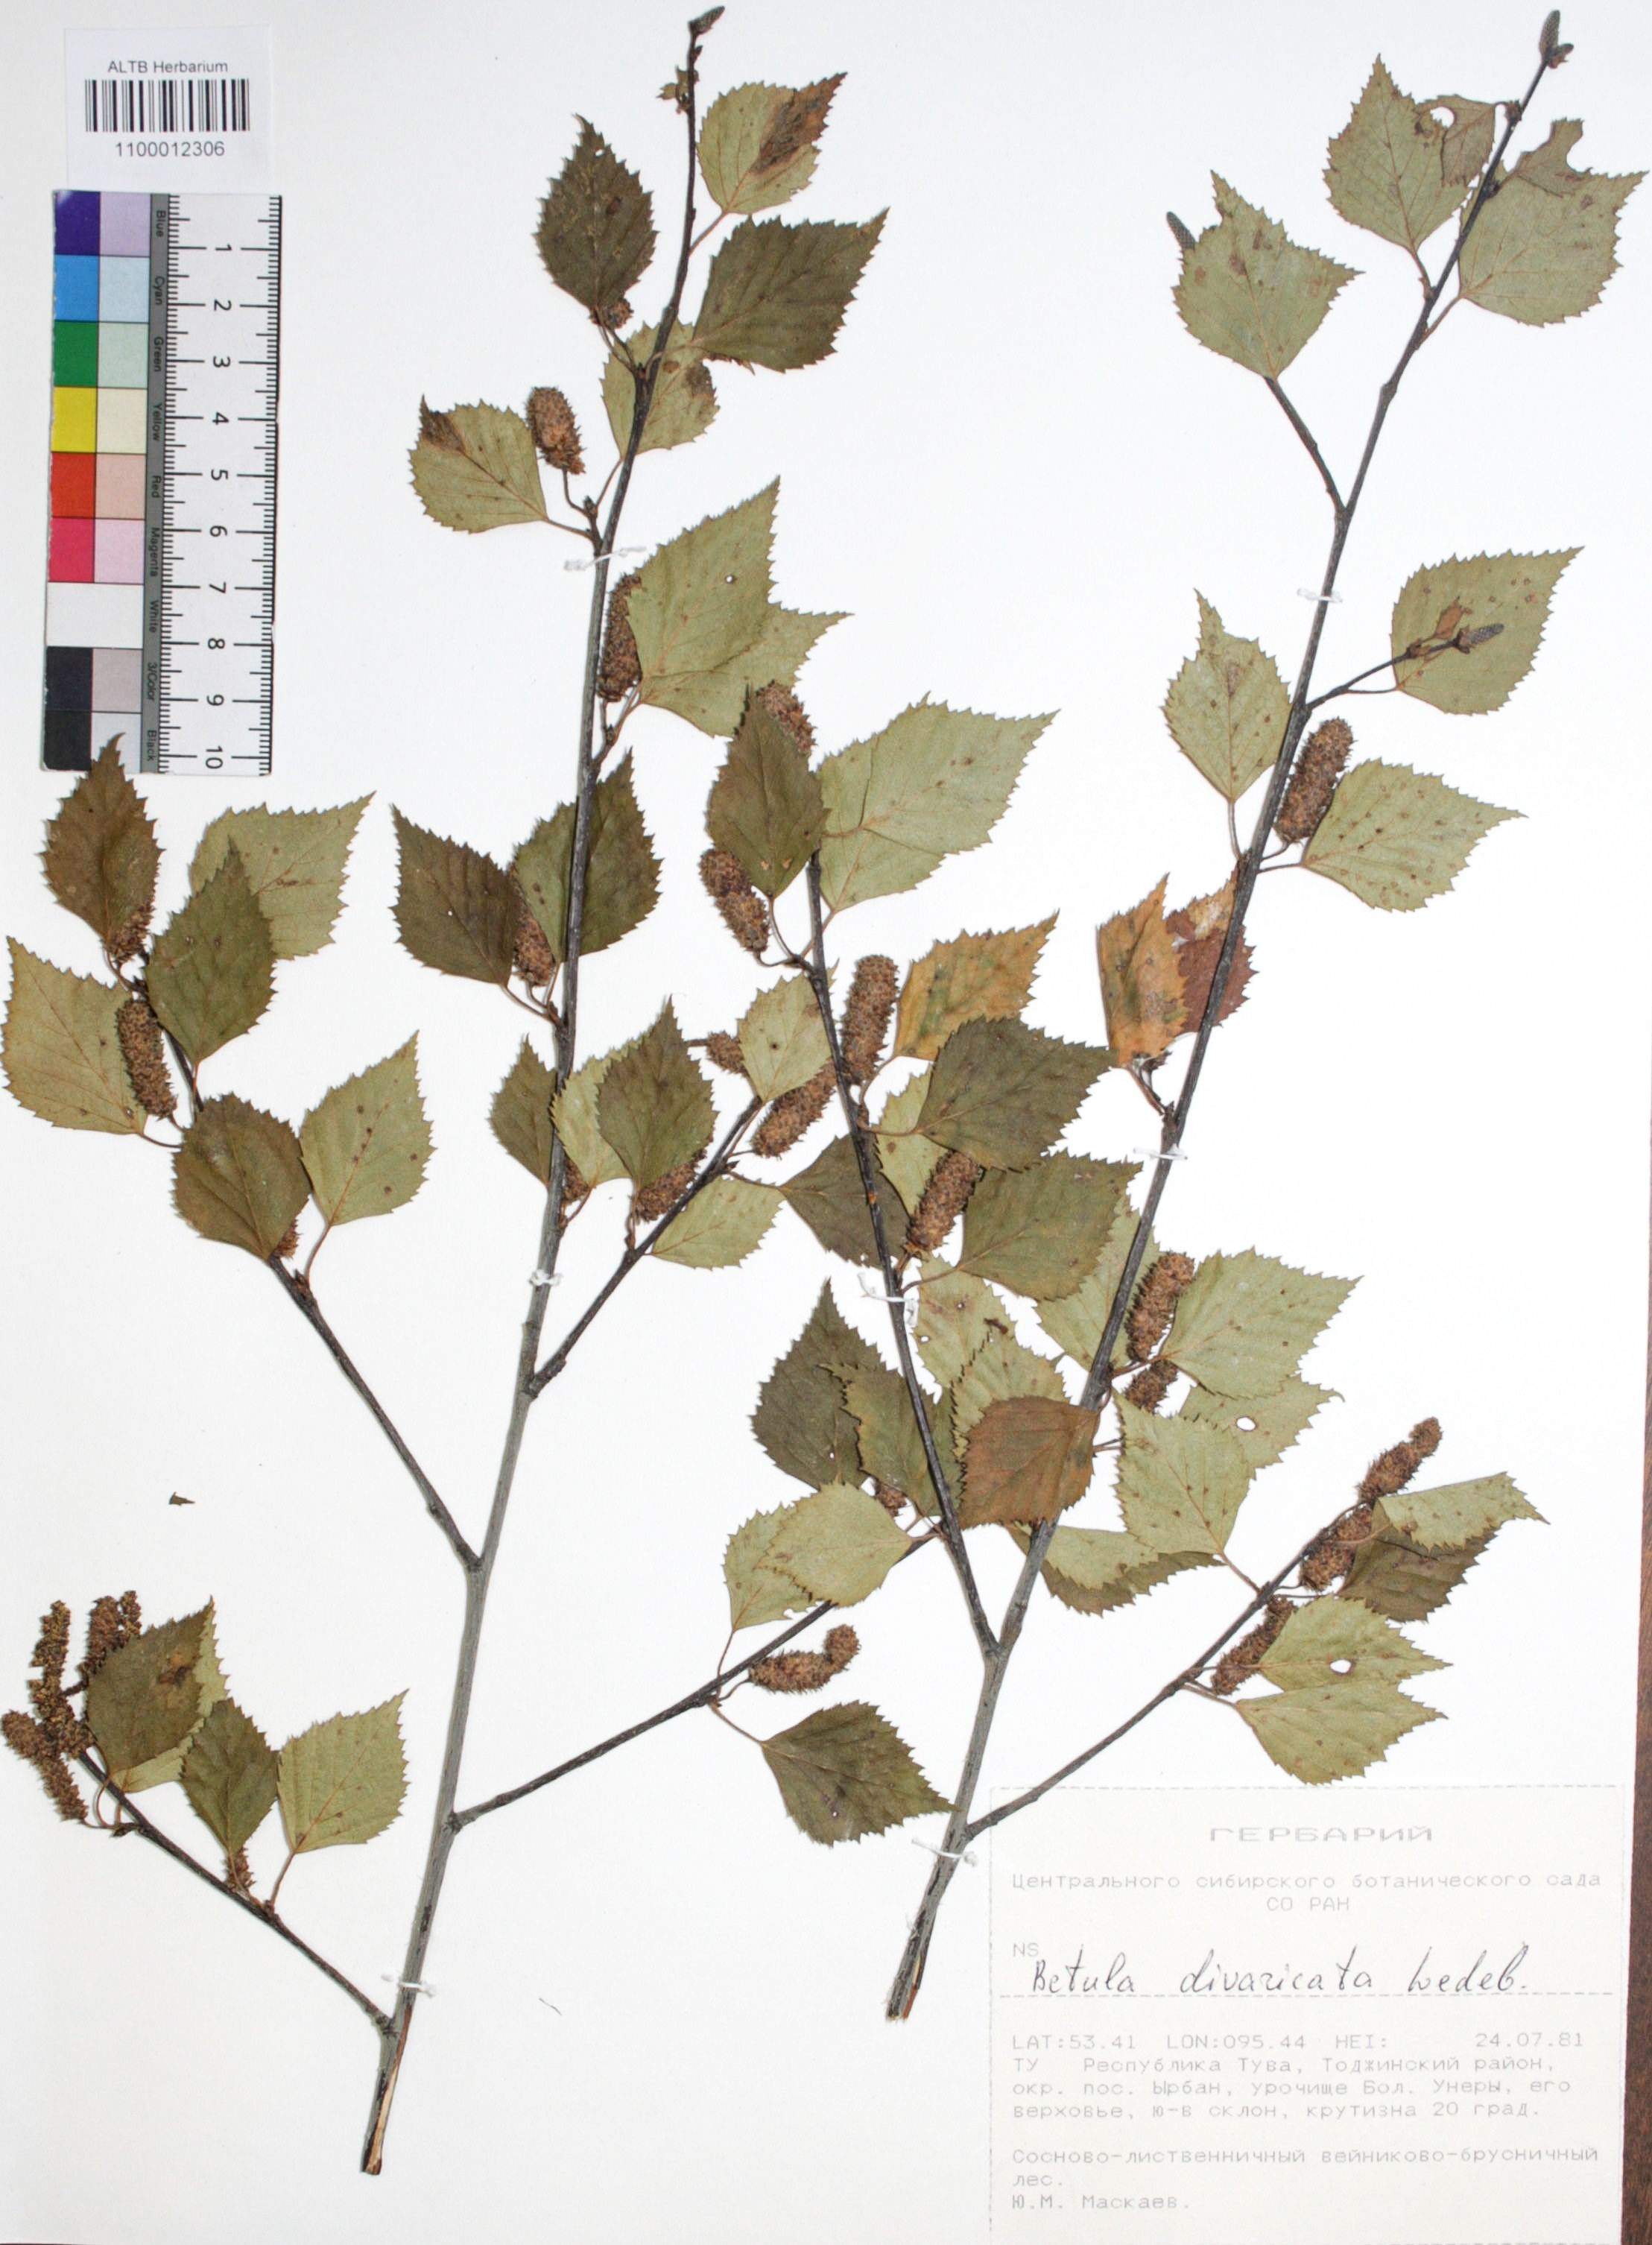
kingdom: Plantae
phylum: Tracheophyta
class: Magnoliopsida
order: Fagales
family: Betulaceae
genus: Betula
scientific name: Betula fruticosa
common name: Japanese bog birch
